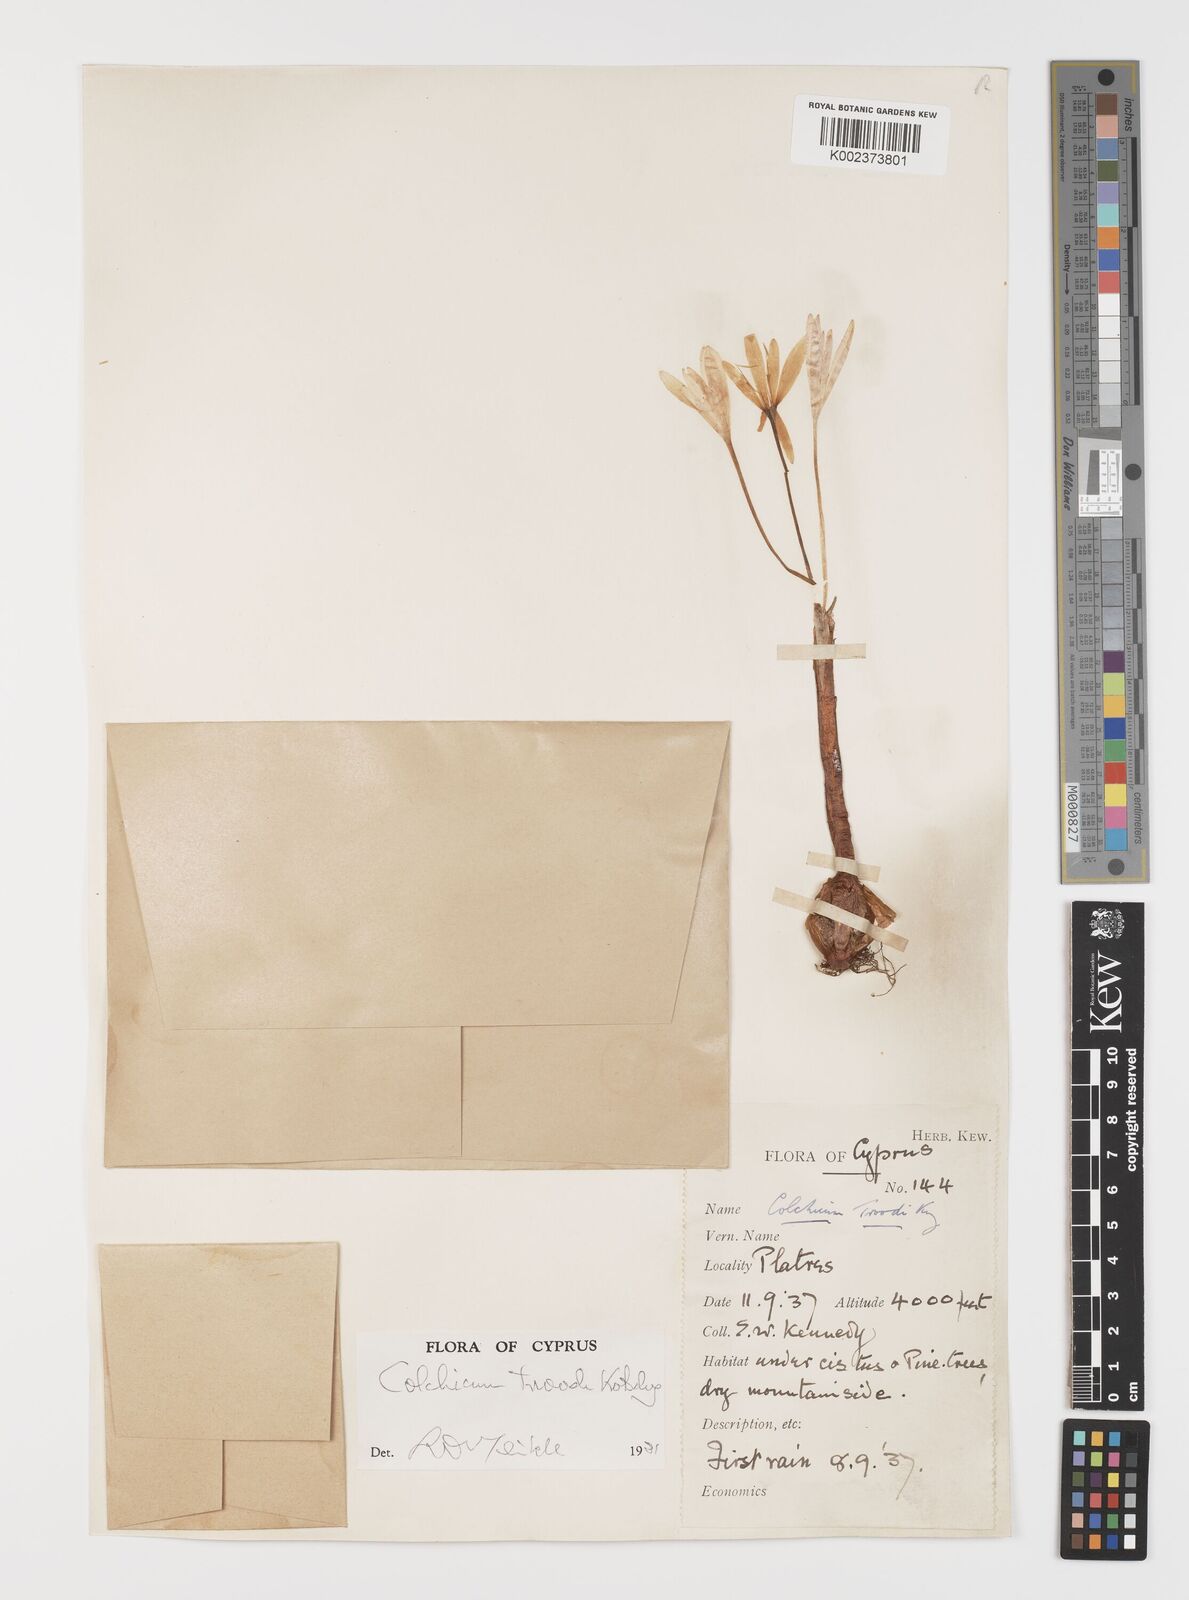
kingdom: Plantae
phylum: Tracheophyta
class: Liliopsida
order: Liliales
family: Colchicaceae
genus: Colchicum
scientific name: Colchicum troodi
